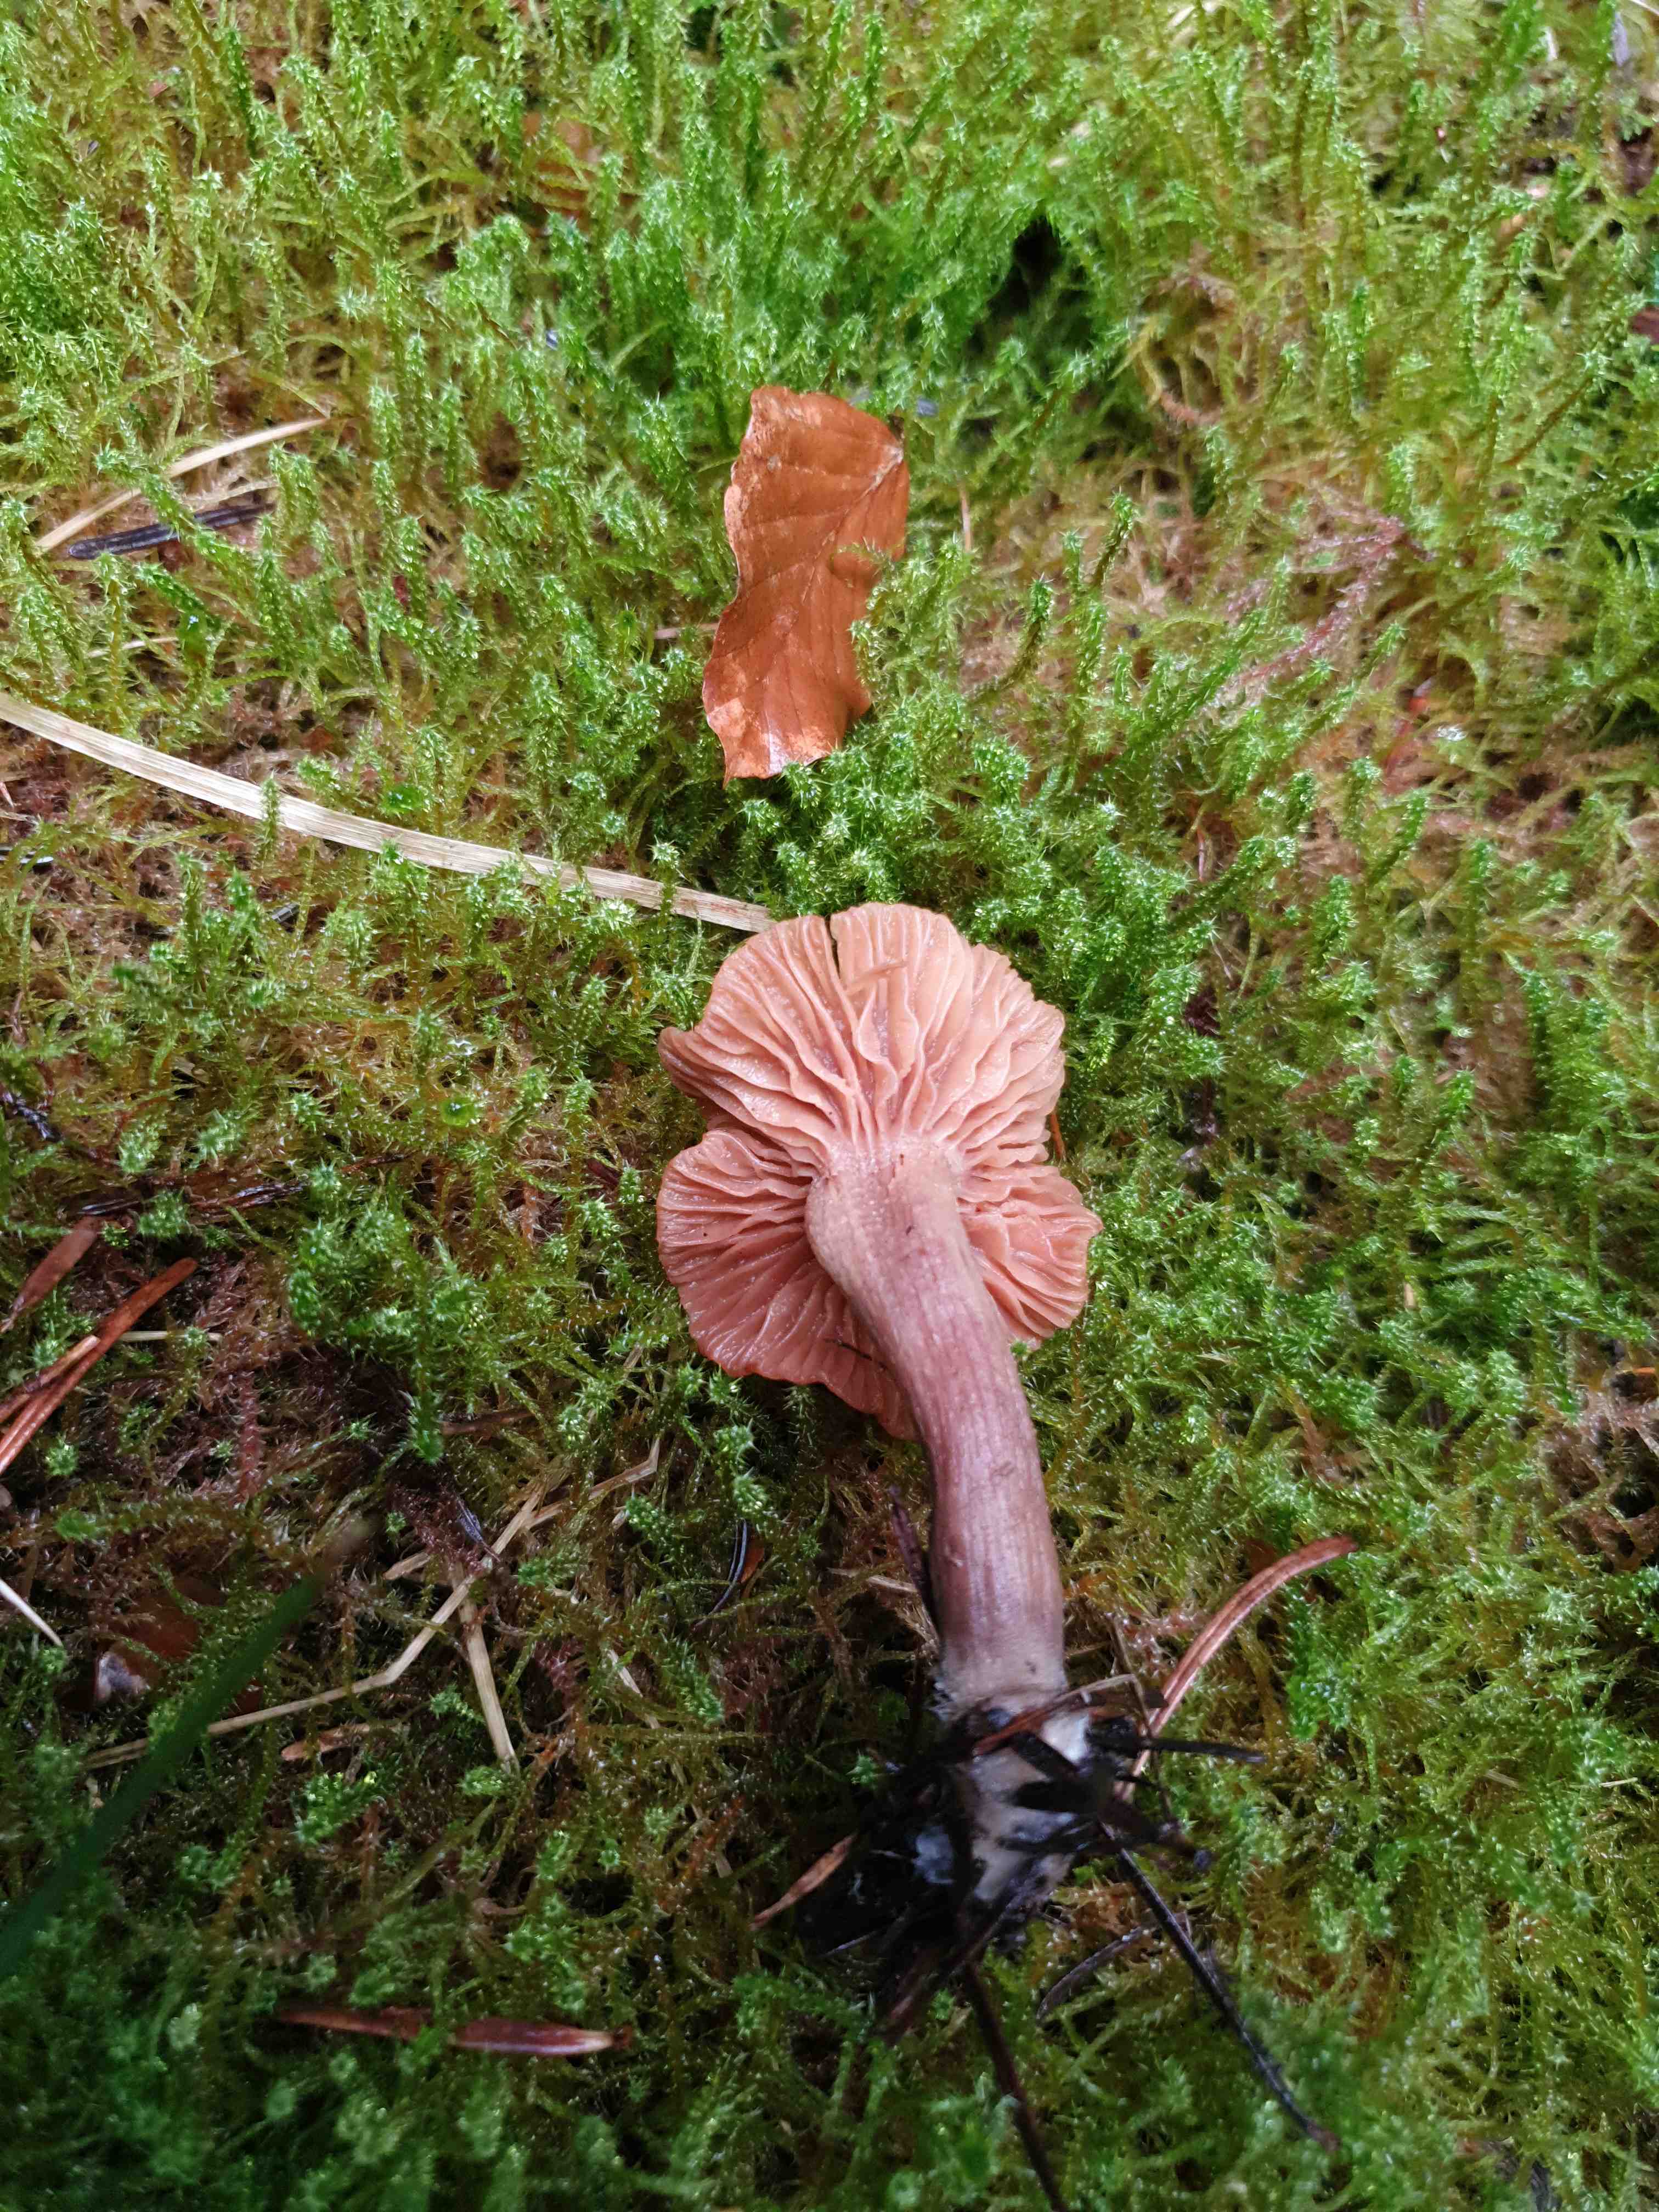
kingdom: Fungi
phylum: Basidiomycota
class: Agaricomycetes
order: Agaricales
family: Hydnangiaceae
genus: Laccaria
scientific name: Laccaria laccata
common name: rød ametysthat
